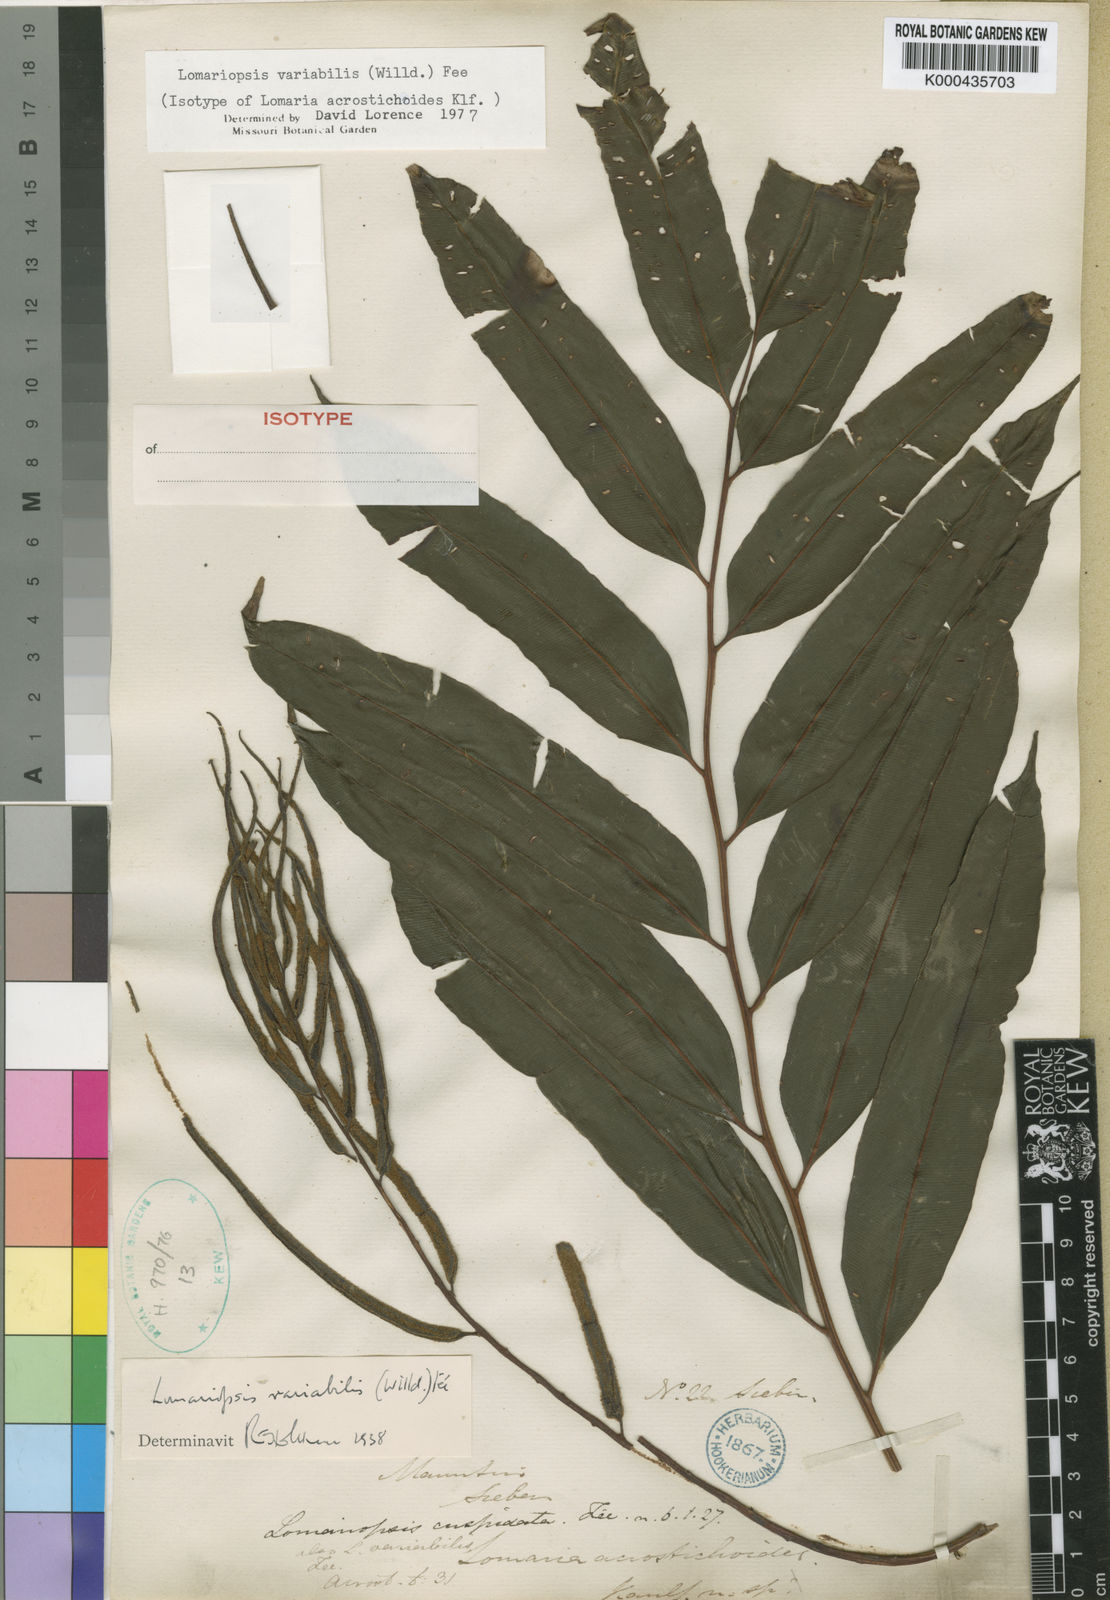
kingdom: Plantae
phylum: Tracheophyta
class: Polypodiopsida
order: Polypodiales
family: Lomariopsidaceae
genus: Lomariopsis
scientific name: Lomariopsis
